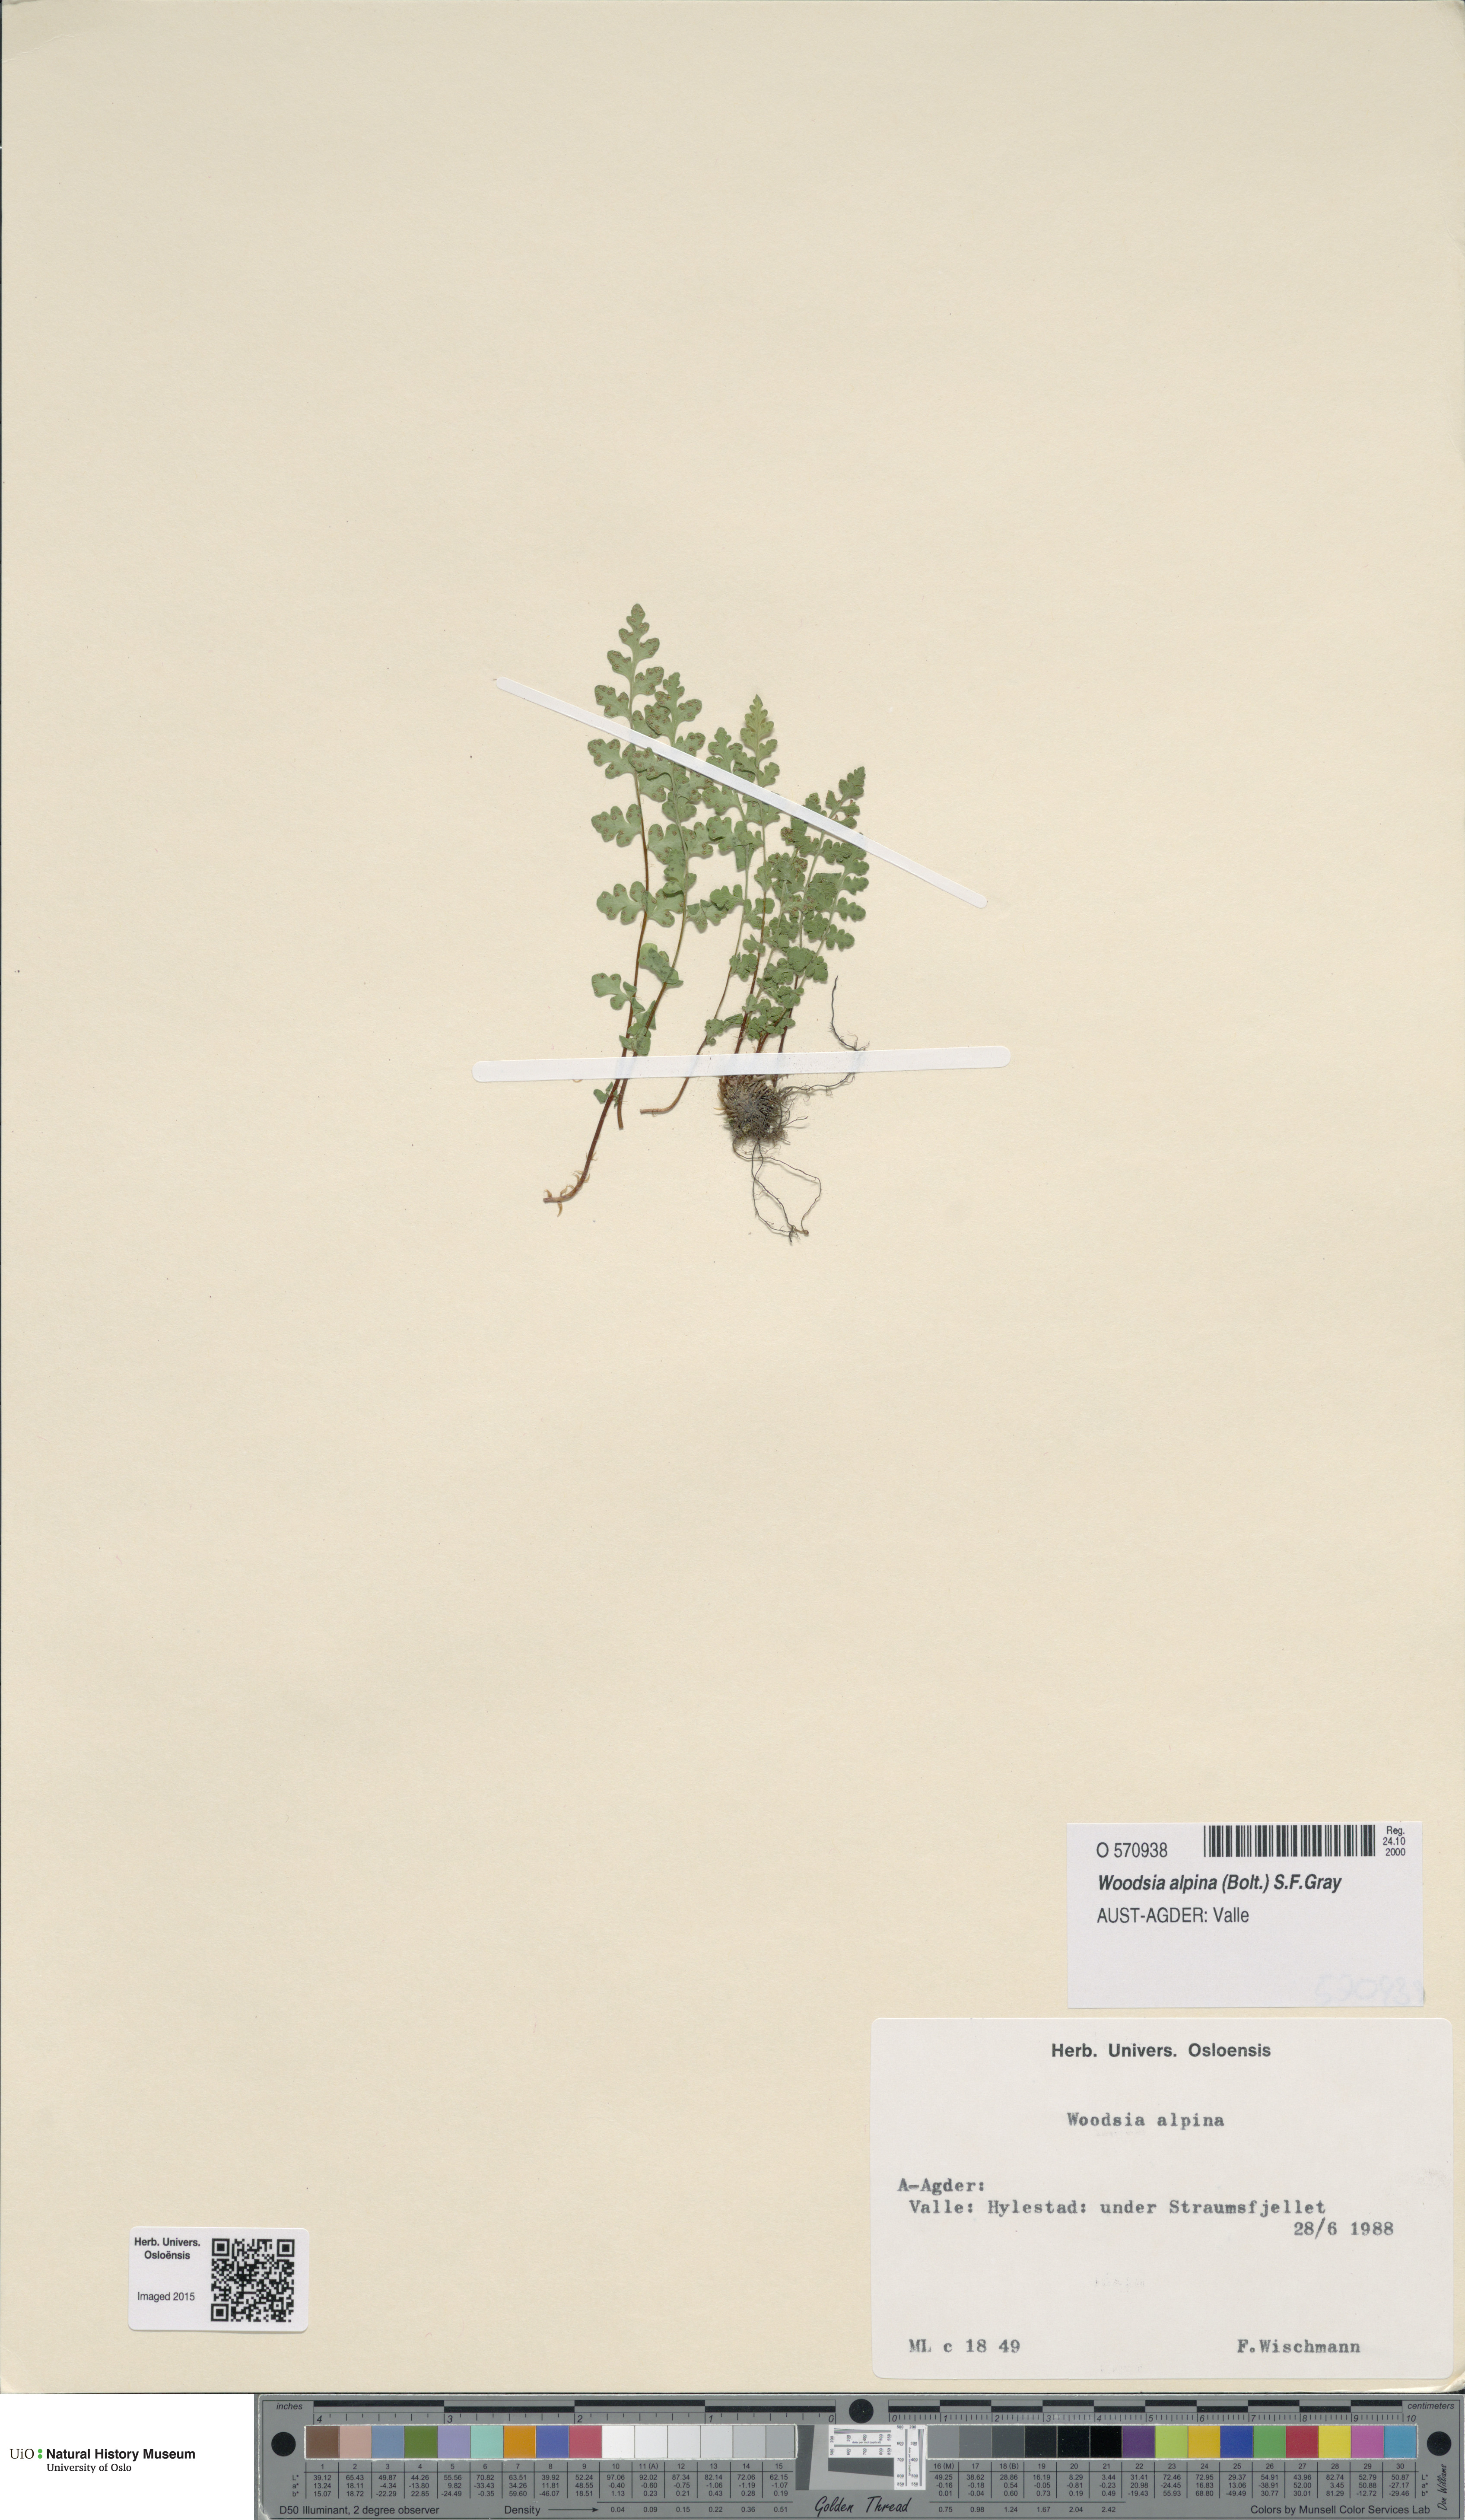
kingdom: Plantae
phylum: Tracheophyta
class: Polypodiopsida
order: Polypodiales
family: Woodsiaceae
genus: Woodsia
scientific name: Woodsia alpina
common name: Alpine woodsia
